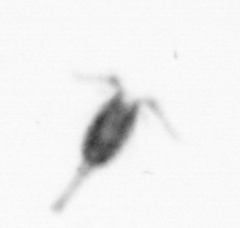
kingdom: Animalia
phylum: Arthropoda
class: Copepoda
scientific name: Copepoda
